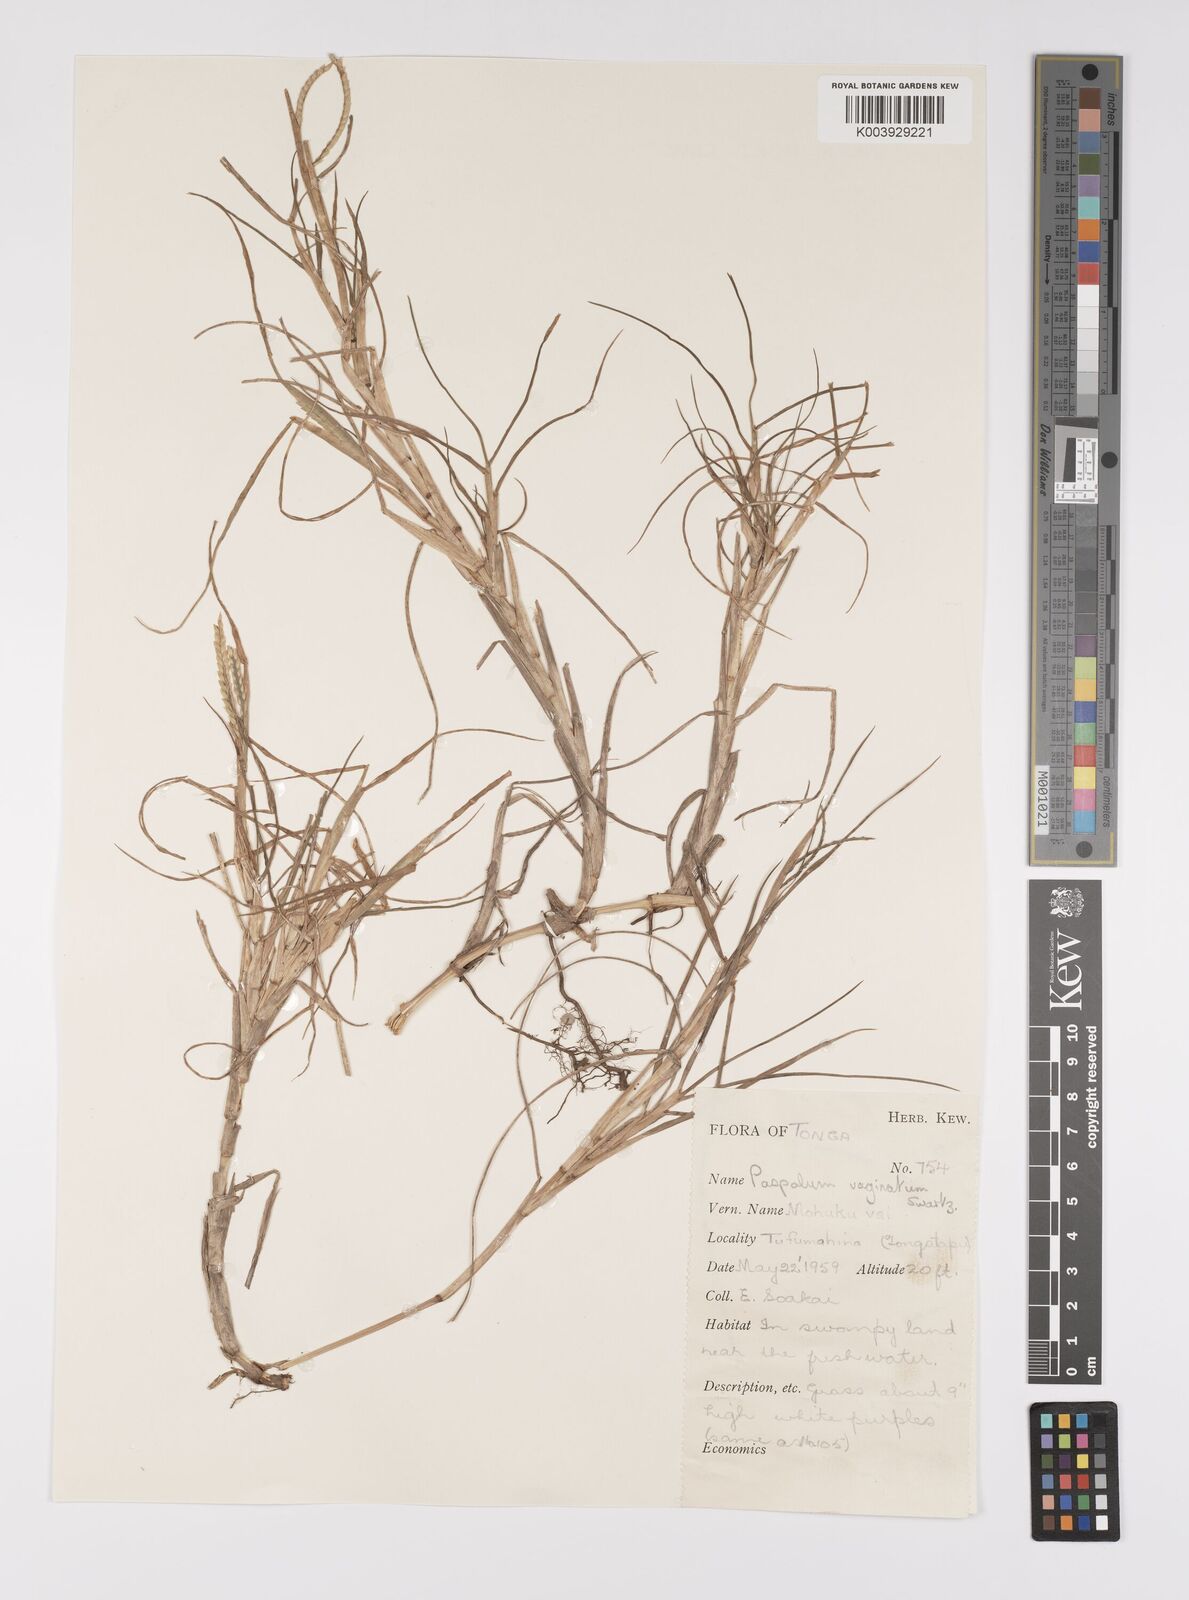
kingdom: Plantae
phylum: Tracheophyta
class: Liliopsida
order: Poales
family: Poaceae
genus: Paspalum
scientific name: Paspalum vaginatum
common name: Seashore paspalum
